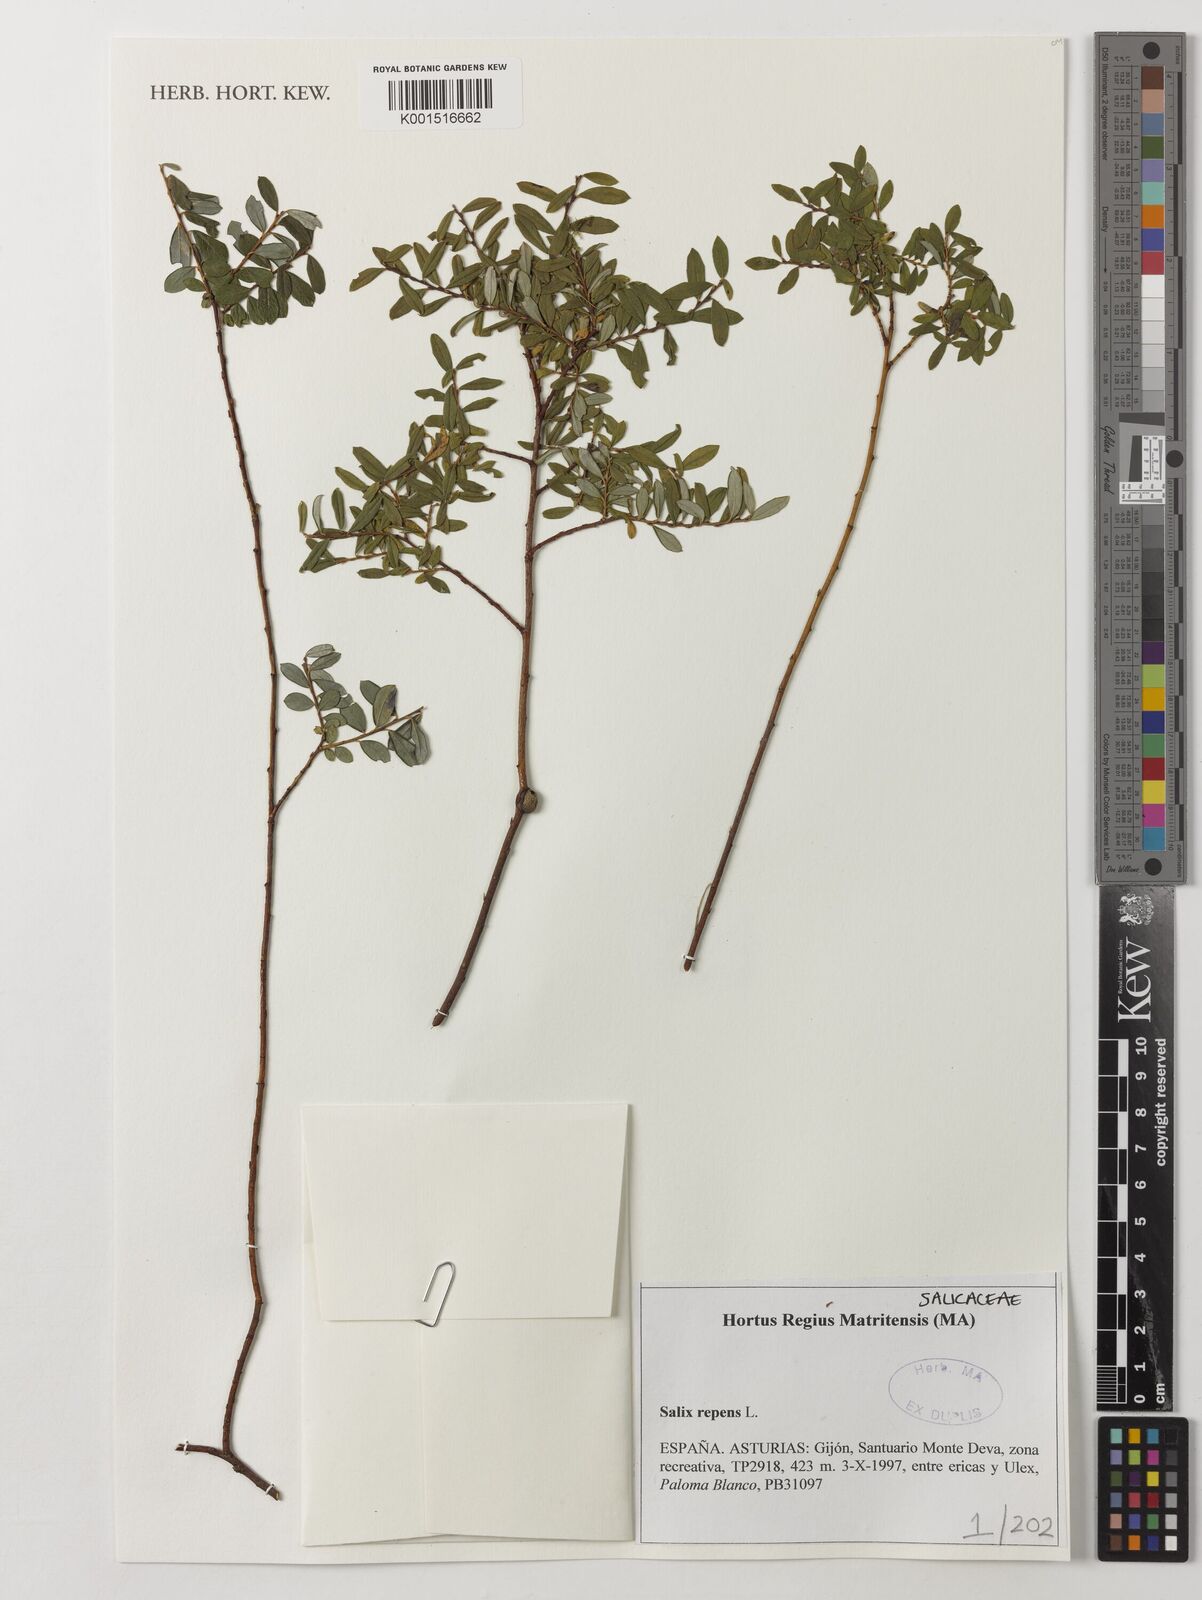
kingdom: Plantae
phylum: Tracheophyta
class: Magnoliopsida
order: Malpighiales
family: Salicaceae
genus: Salix
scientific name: Salix repens
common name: Creeping willow
